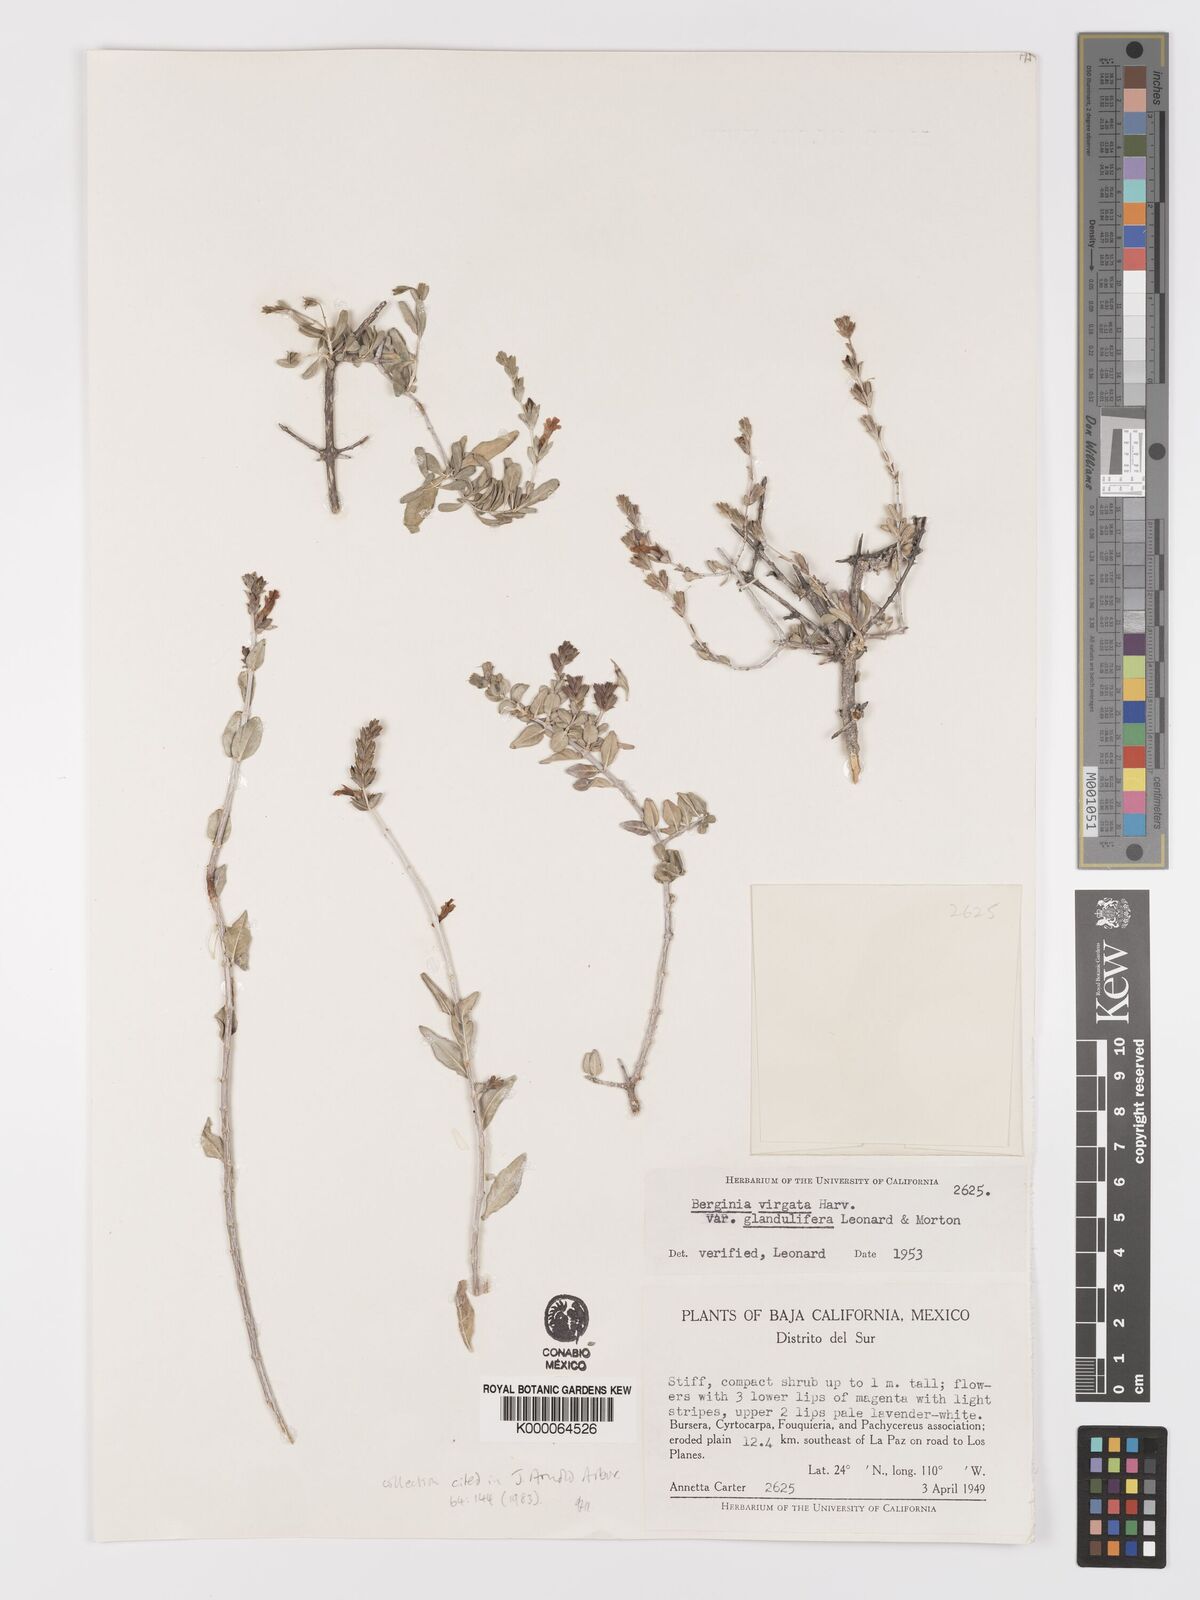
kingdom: Plantae
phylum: Tracheophyta
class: Magnoliopsida
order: Lamiales
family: Acanthaceae
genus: Holographis
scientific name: Holographis virgata
